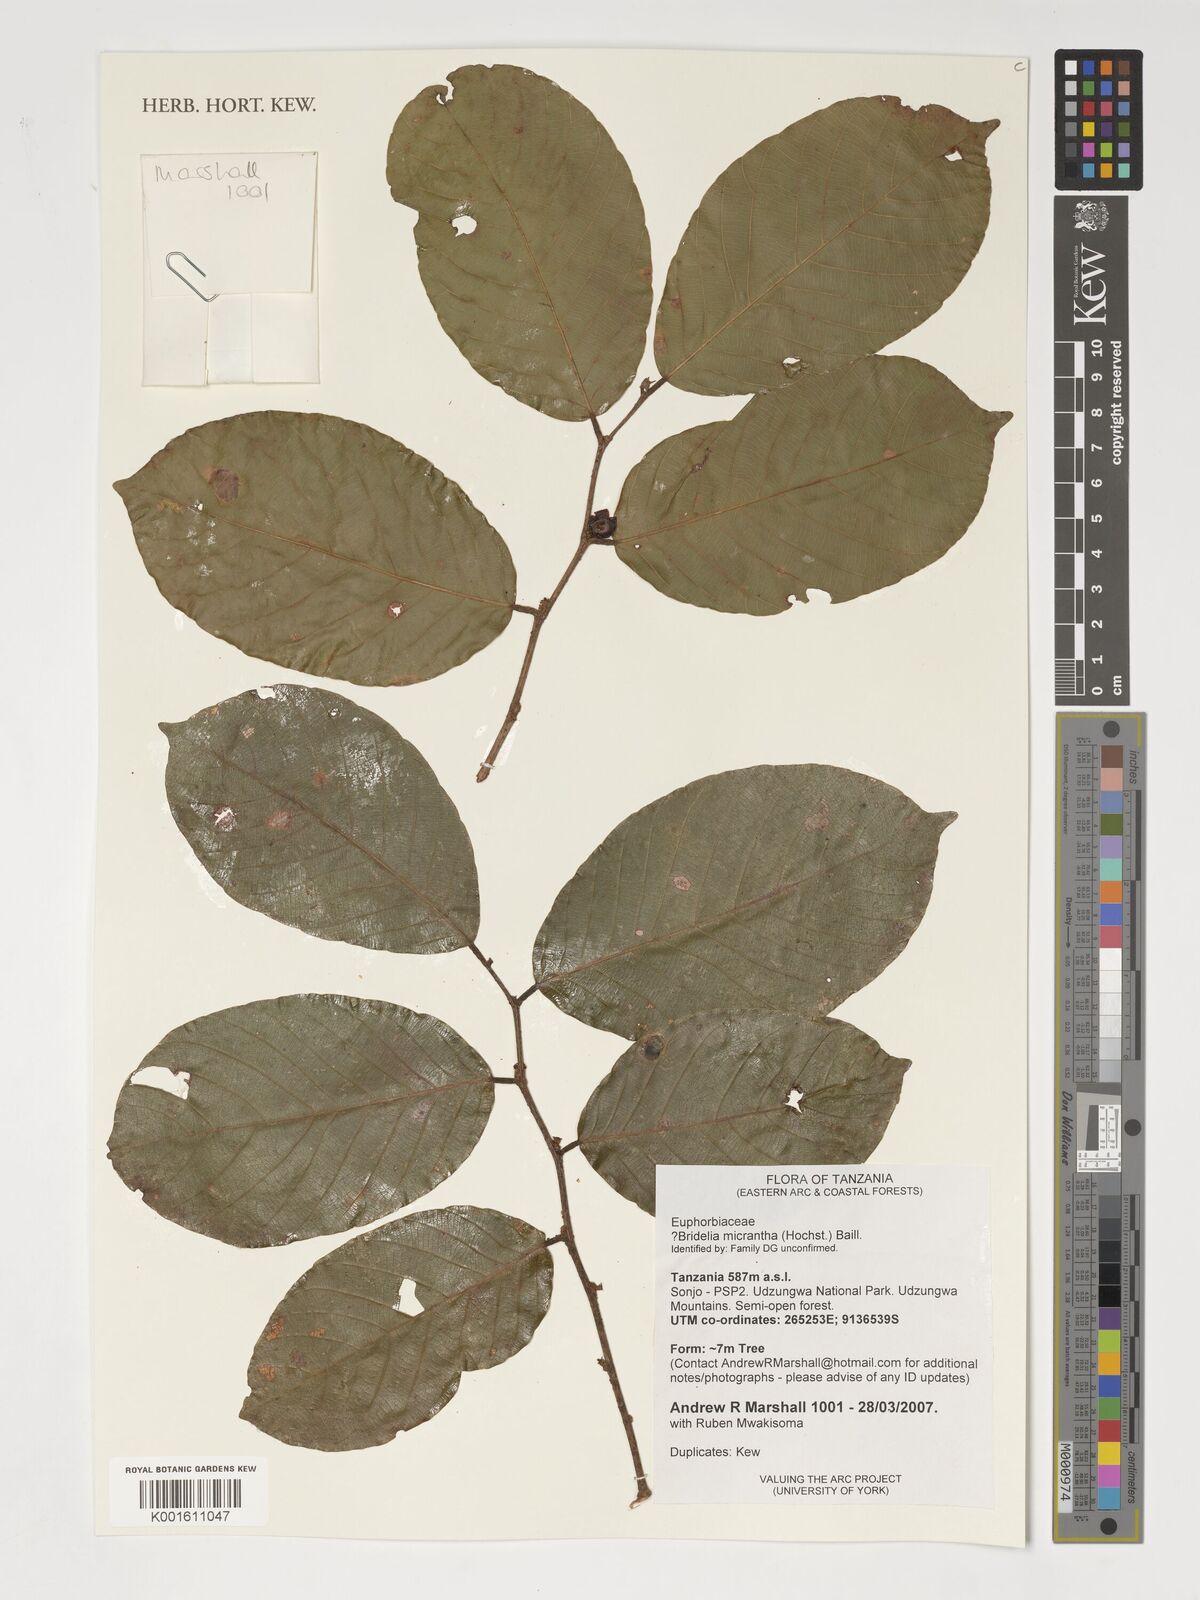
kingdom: Plantae
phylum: Tracheophyta
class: Magnoliopsida
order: Malpighiales
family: Phyllanthaceae
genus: Bridelia
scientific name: Bridelia micrantha
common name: Bridelia
